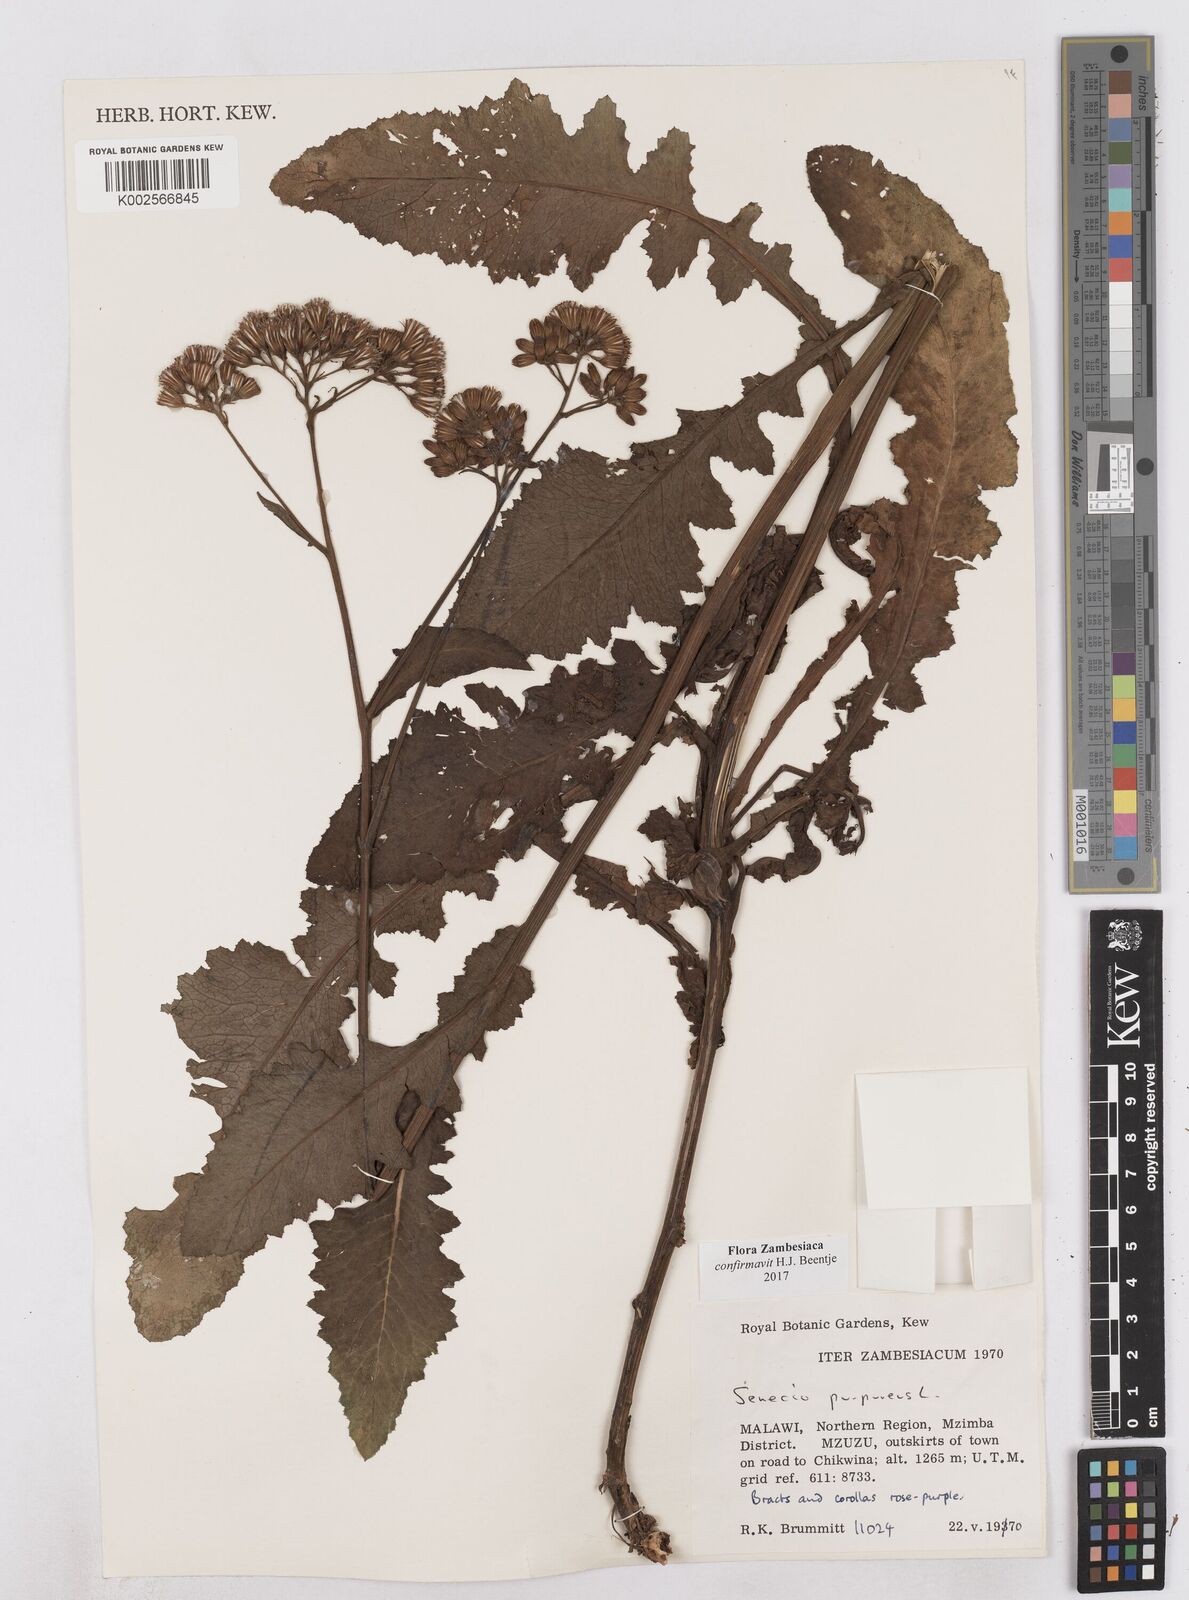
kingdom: Plantae
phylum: Tracheophyta
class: Magnoliopsida
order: Asterales
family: Asteraceae
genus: Senecio
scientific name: Senecio purpureus
